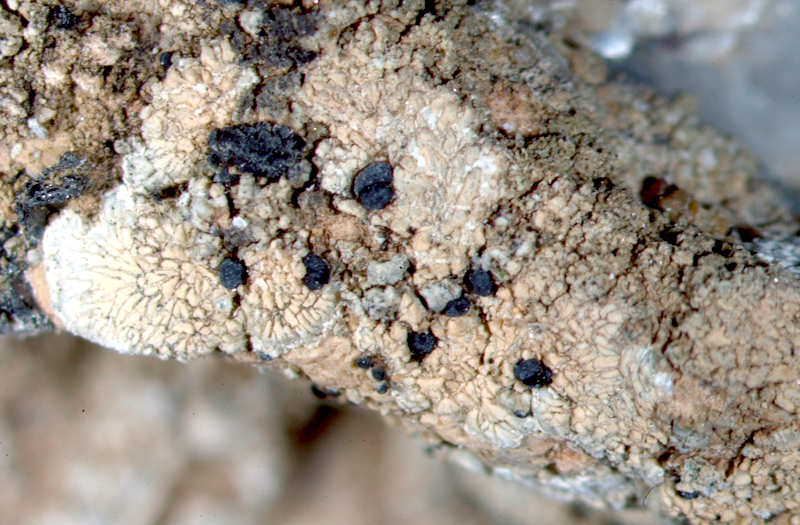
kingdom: Fungi
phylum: Ascomycota
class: Lecanoromycetes
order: Caliciales
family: Caliciaceae
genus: Buellia
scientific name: Buellia
